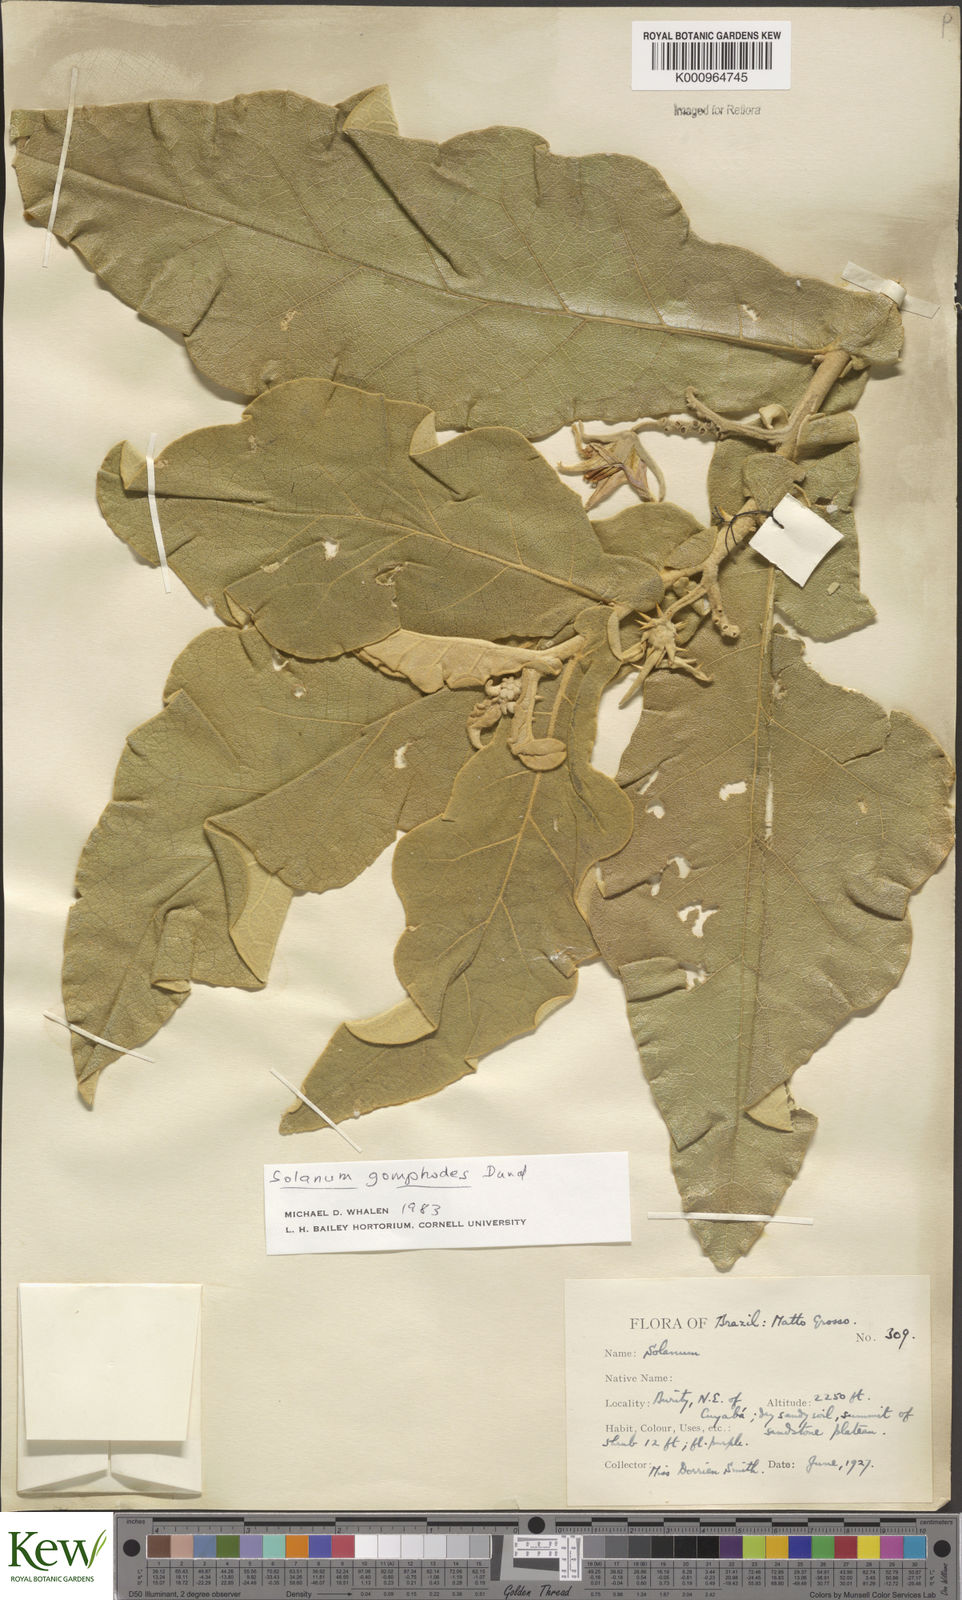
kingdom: Plantae
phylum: Tracheophyta
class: Magnoliopsida
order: Solanales
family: Solanaceae
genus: Solanum
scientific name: Solanum gomphodes
